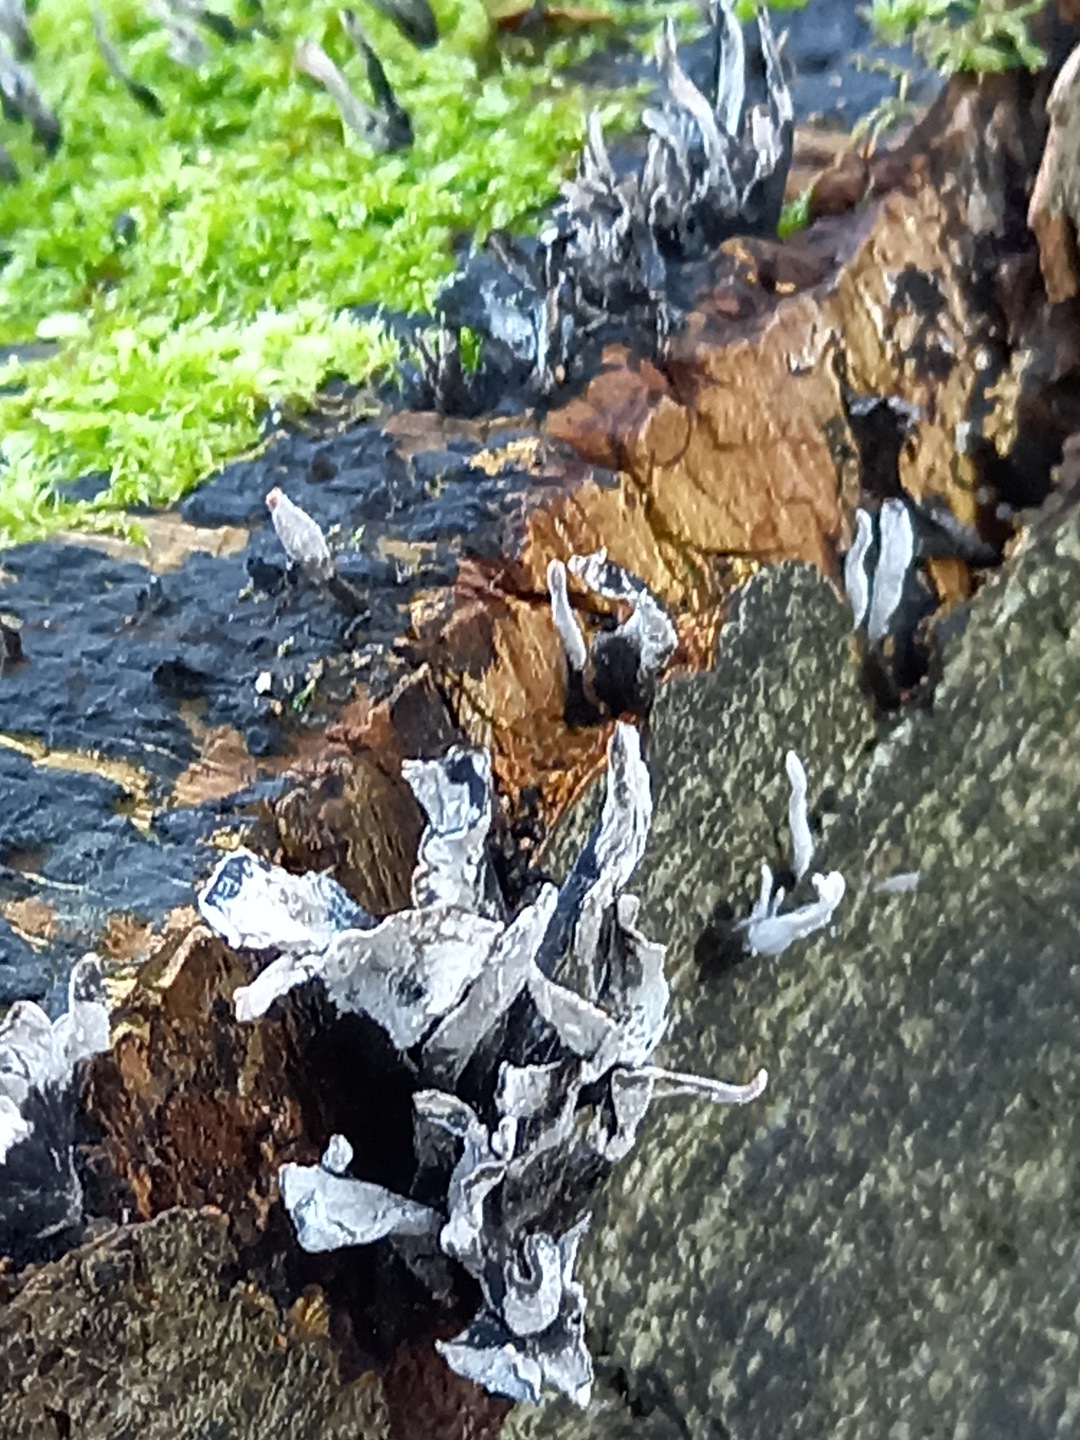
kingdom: Fungi
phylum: Ascomycota
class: Sordariomycetes
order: Xylariales
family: Xylariaceae
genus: Xylaria
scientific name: Xylaria hypoxylon
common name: grenet stødsvamp
